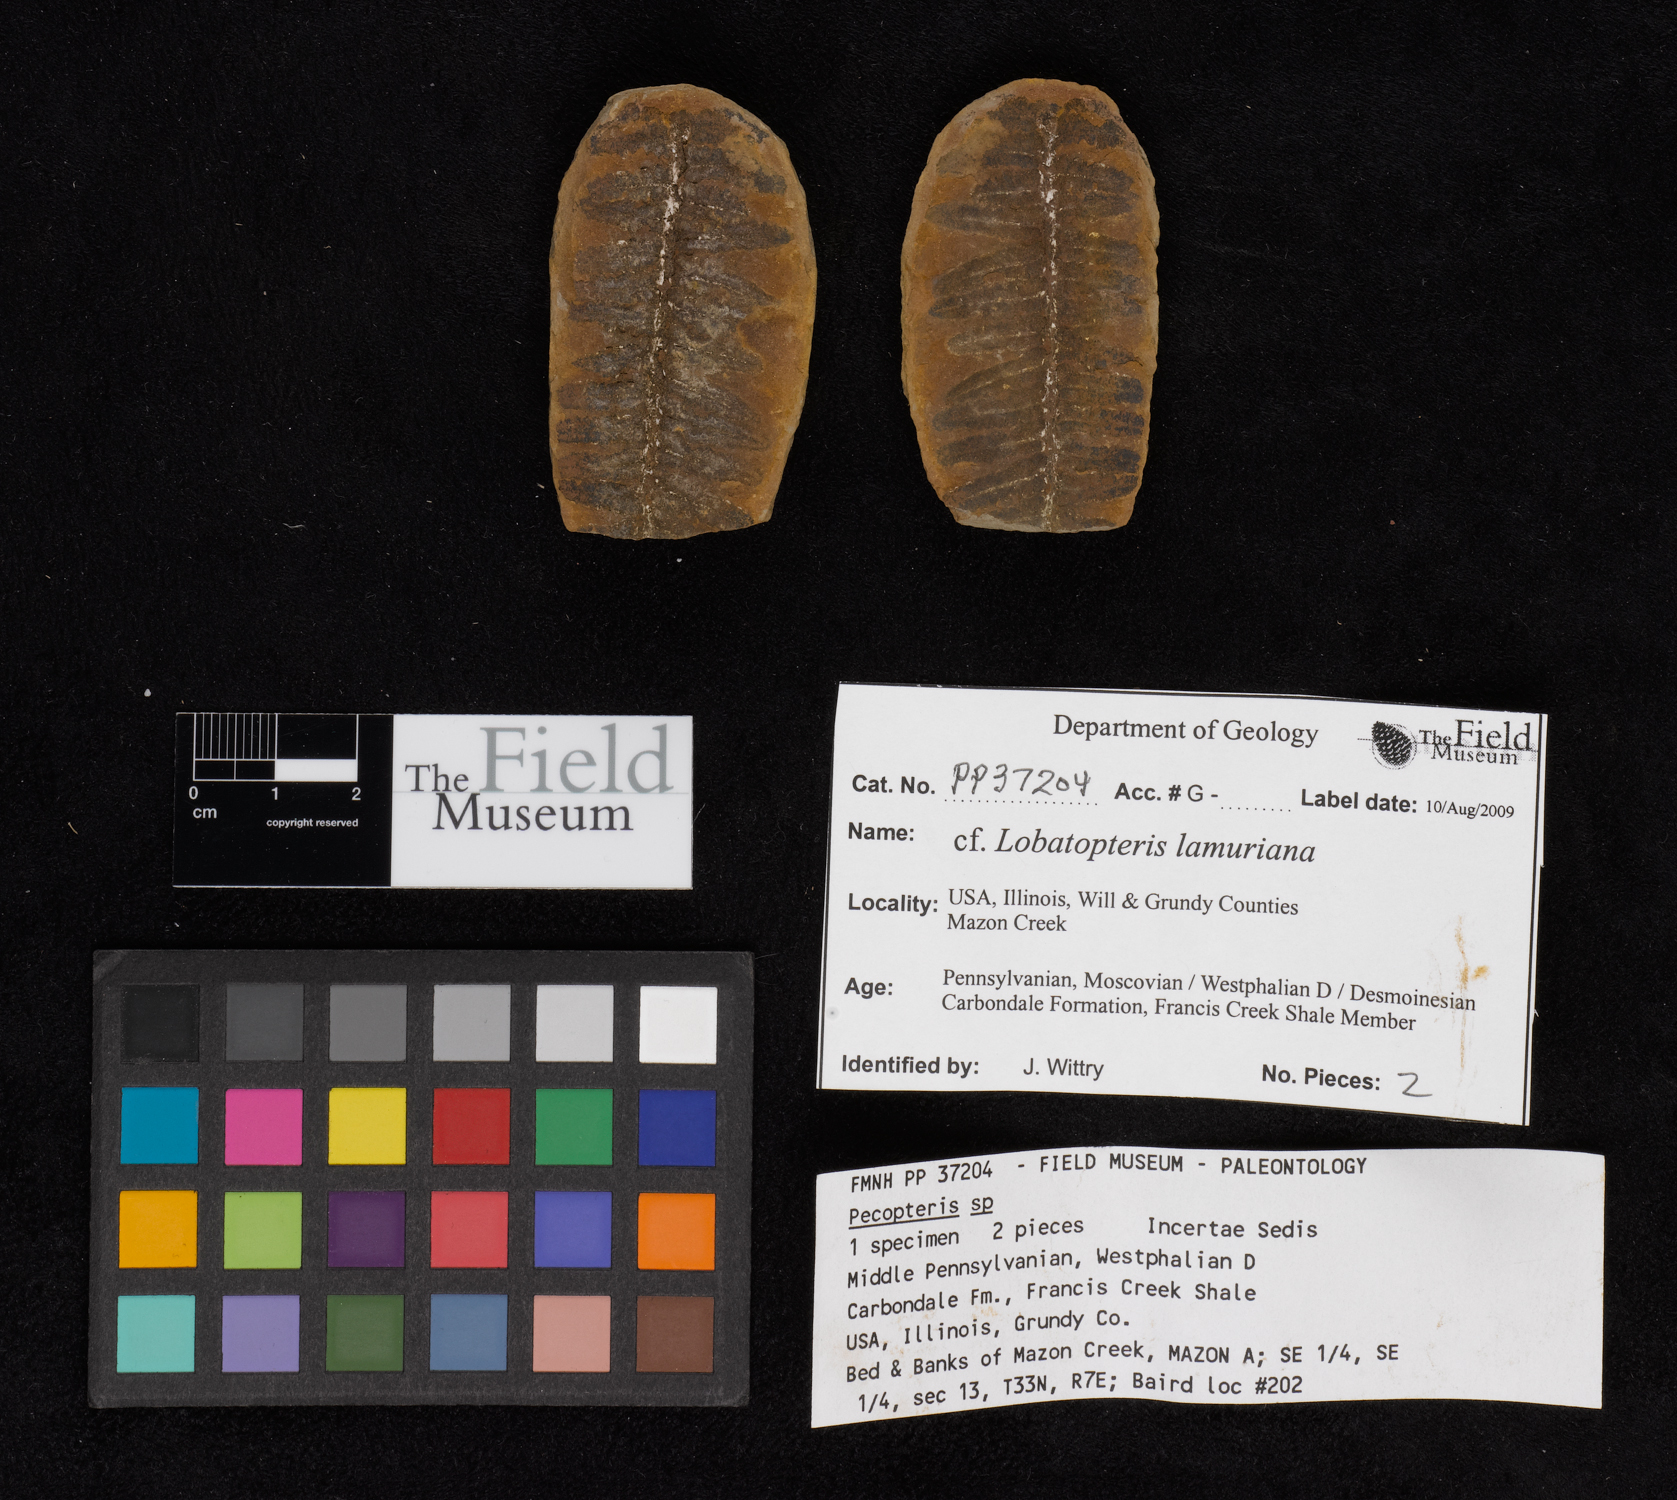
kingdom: Plantae
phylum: Tracheophyta
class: Polypodiopsida
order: Marattiales
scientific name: Marattiales
